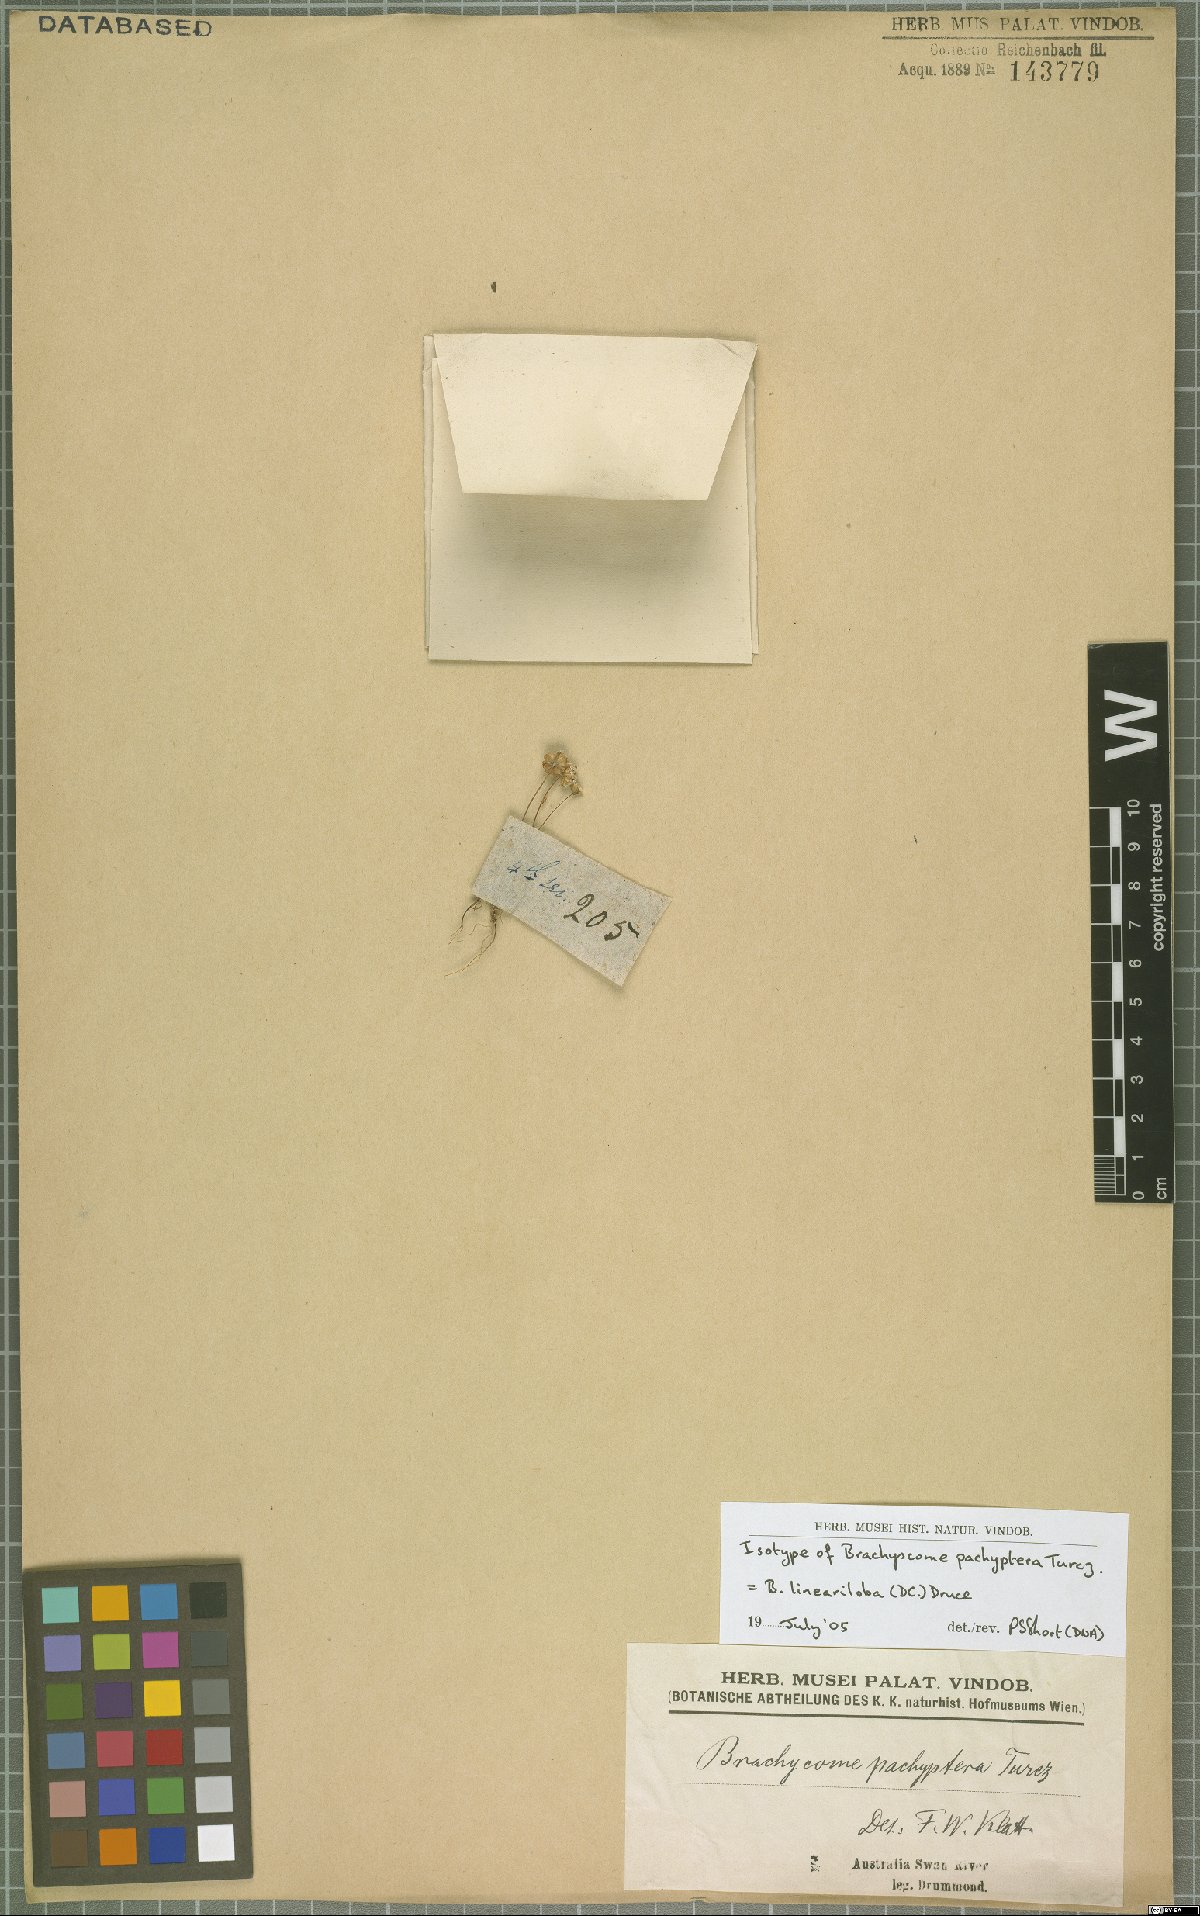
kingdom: Plantae
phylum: Tracheophyta
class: Magnoliopsida
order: Asterales
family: Asteraceae
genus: Brachyscome
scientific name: Brachyscome lineariloba
